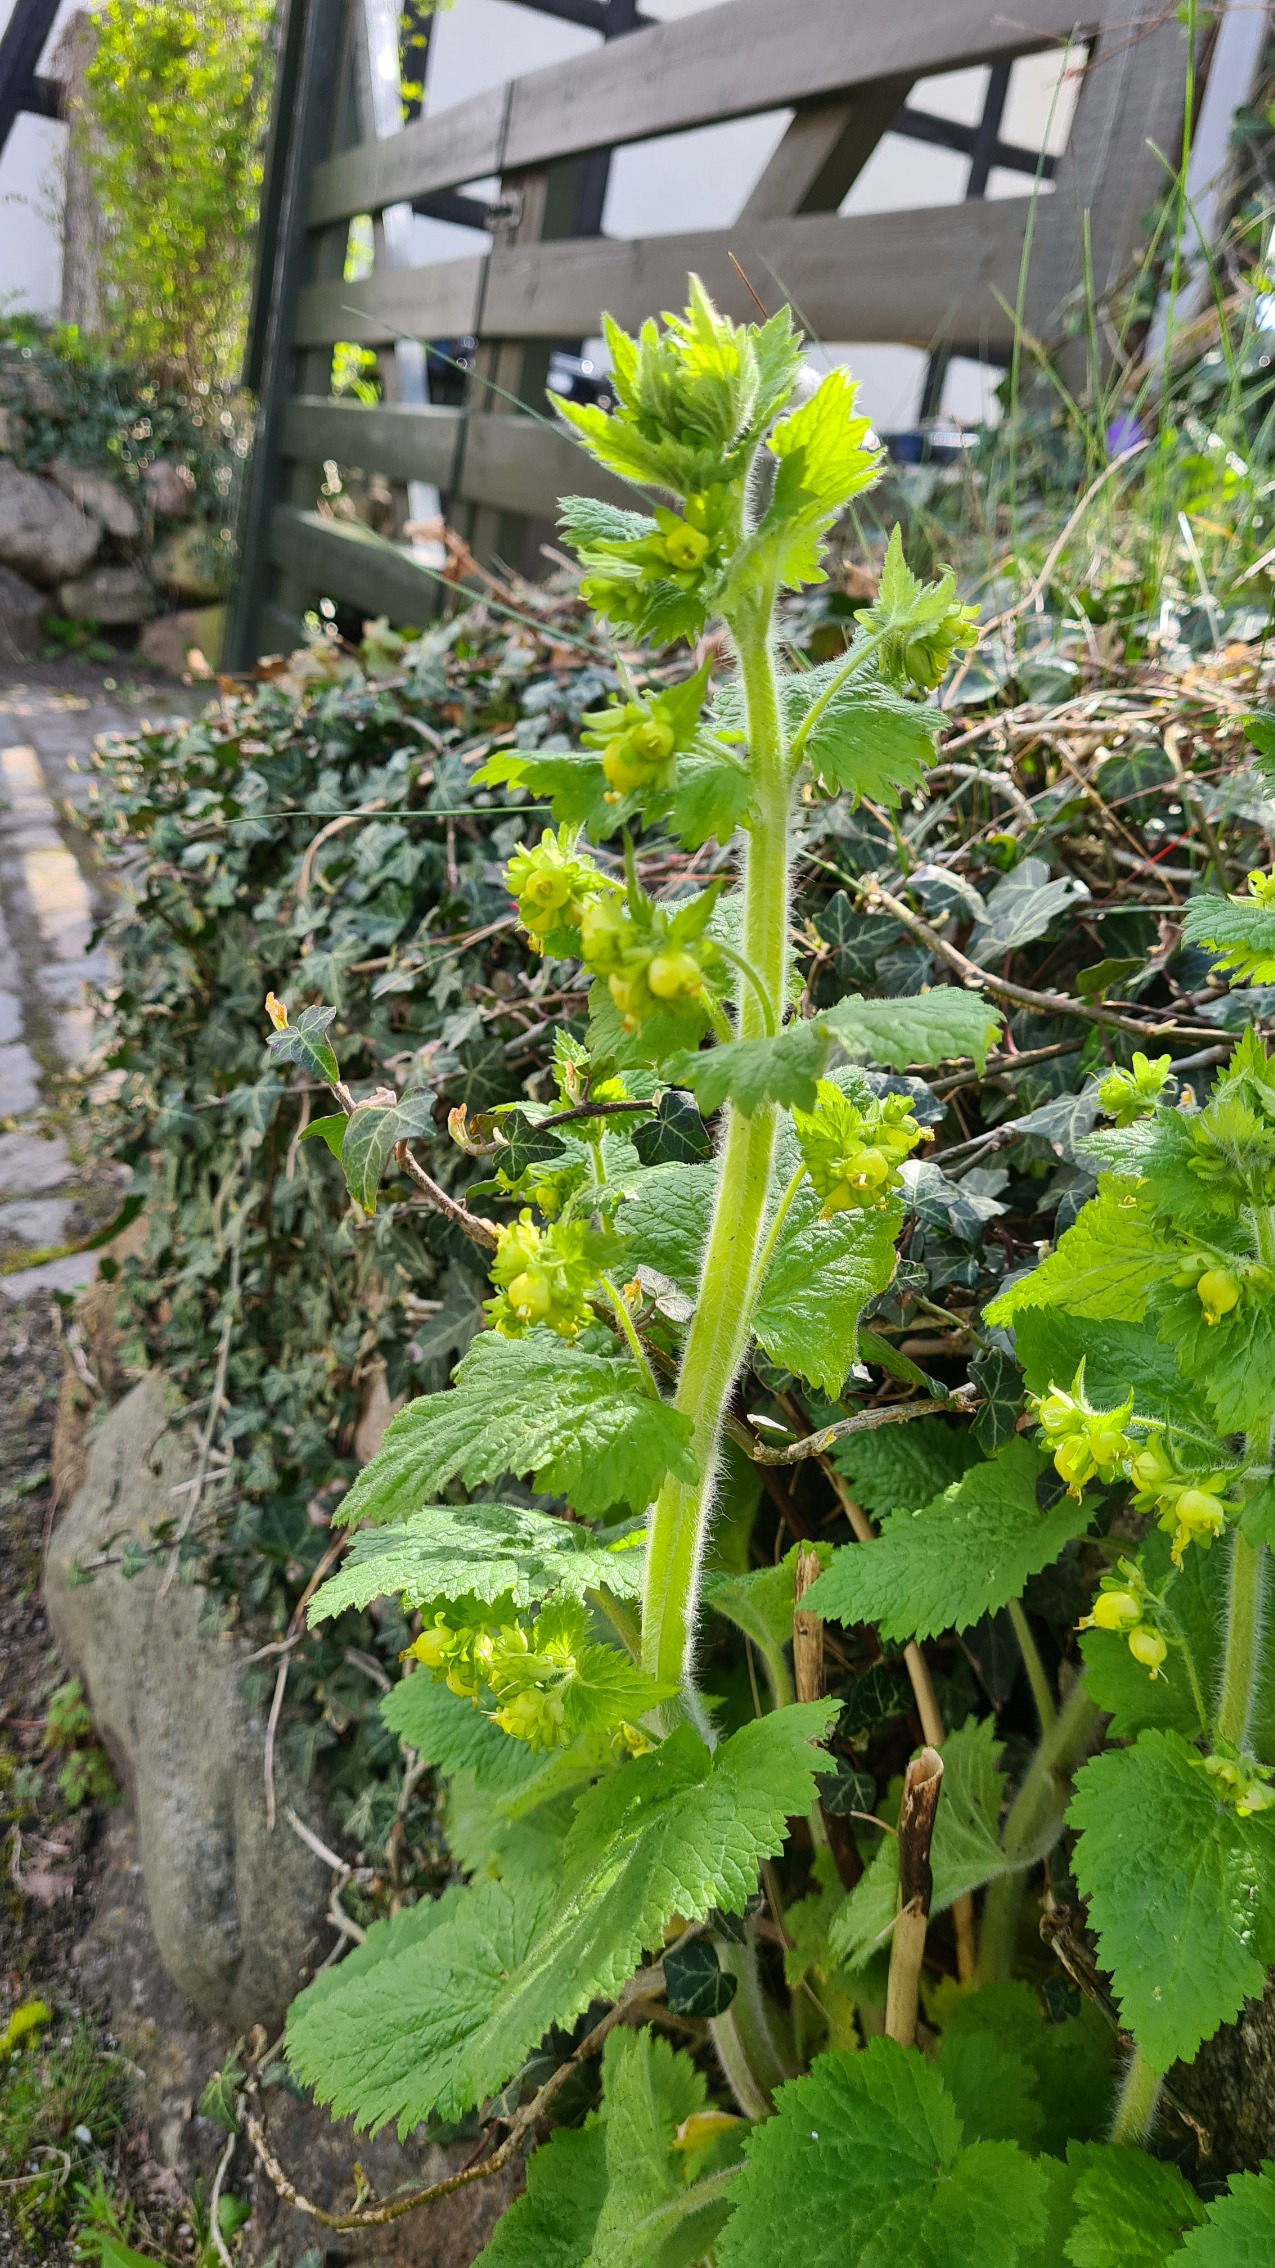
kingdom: Plantae
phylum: Tracheophyta
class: Magnoliopsida
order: Lamiales
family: Scrophulariaceae
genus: Scrophularia
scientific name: Scrophularia vernalis
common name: Vår-brunrod
